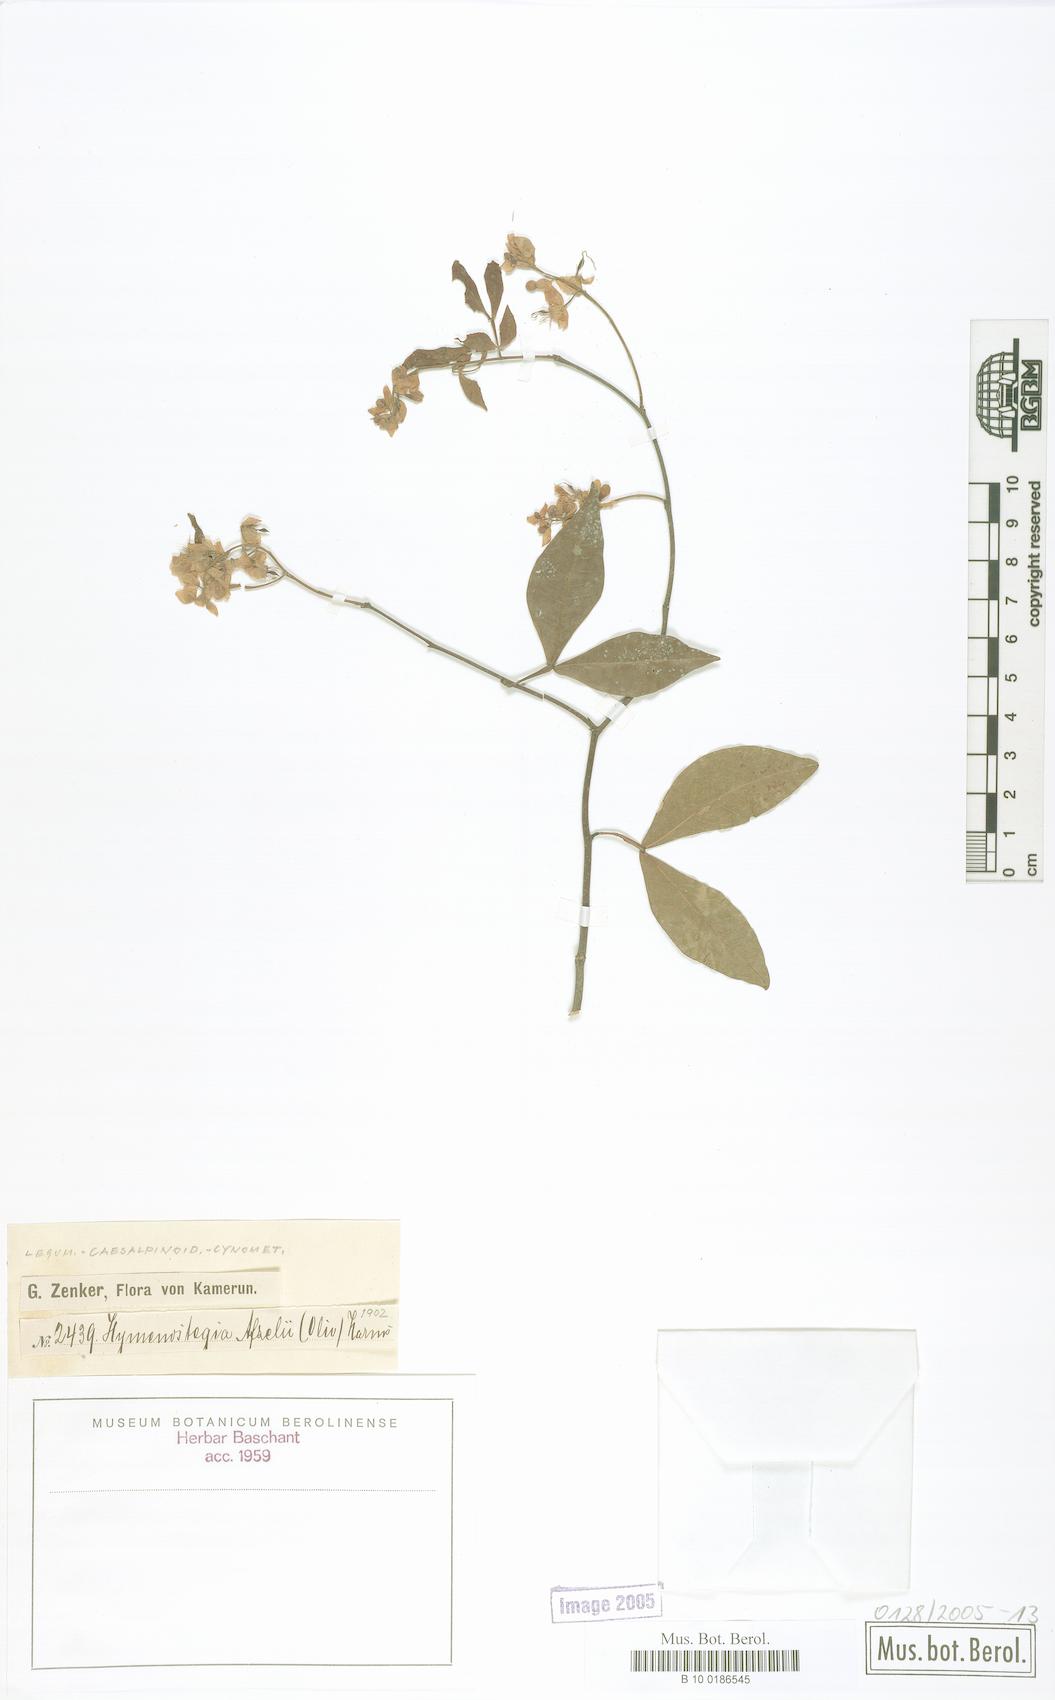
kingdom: Plantae
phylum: Tracheophyta
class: Magnoliopsida
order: Fabales
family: Fabaceae
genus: Annea
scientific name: Annea afzelii
